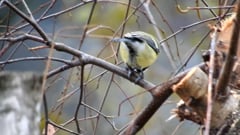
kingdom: Animalia
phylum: Chordata
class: Aves
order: Passeriformes
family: Paridae
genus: Parus
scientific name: Parus major
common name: Great tit
